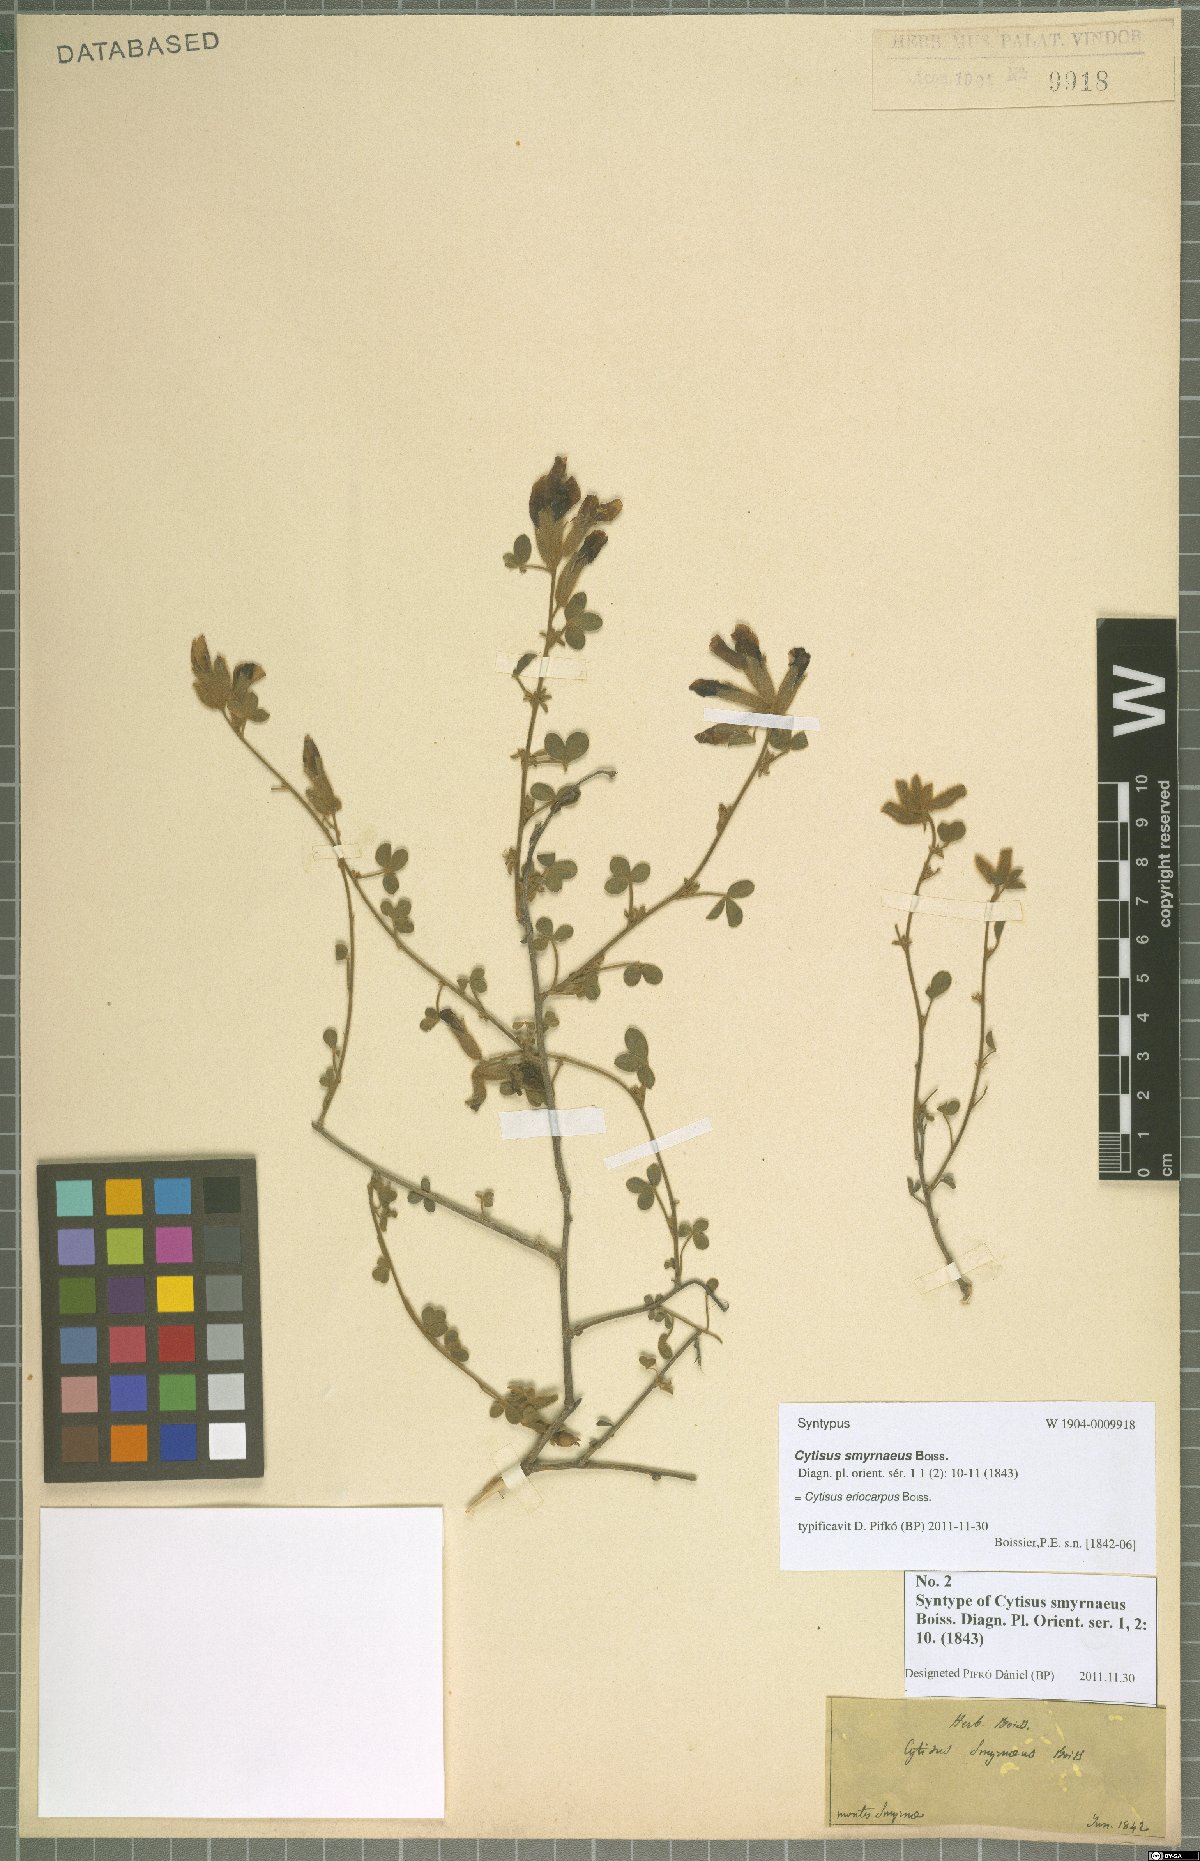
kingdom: Plantae
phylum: Tracheophyta
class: Magnoliopsida
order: Fabales
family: Fabaceae
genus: Chamaecytisus
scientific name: Chamaecytisus eriocarpus
